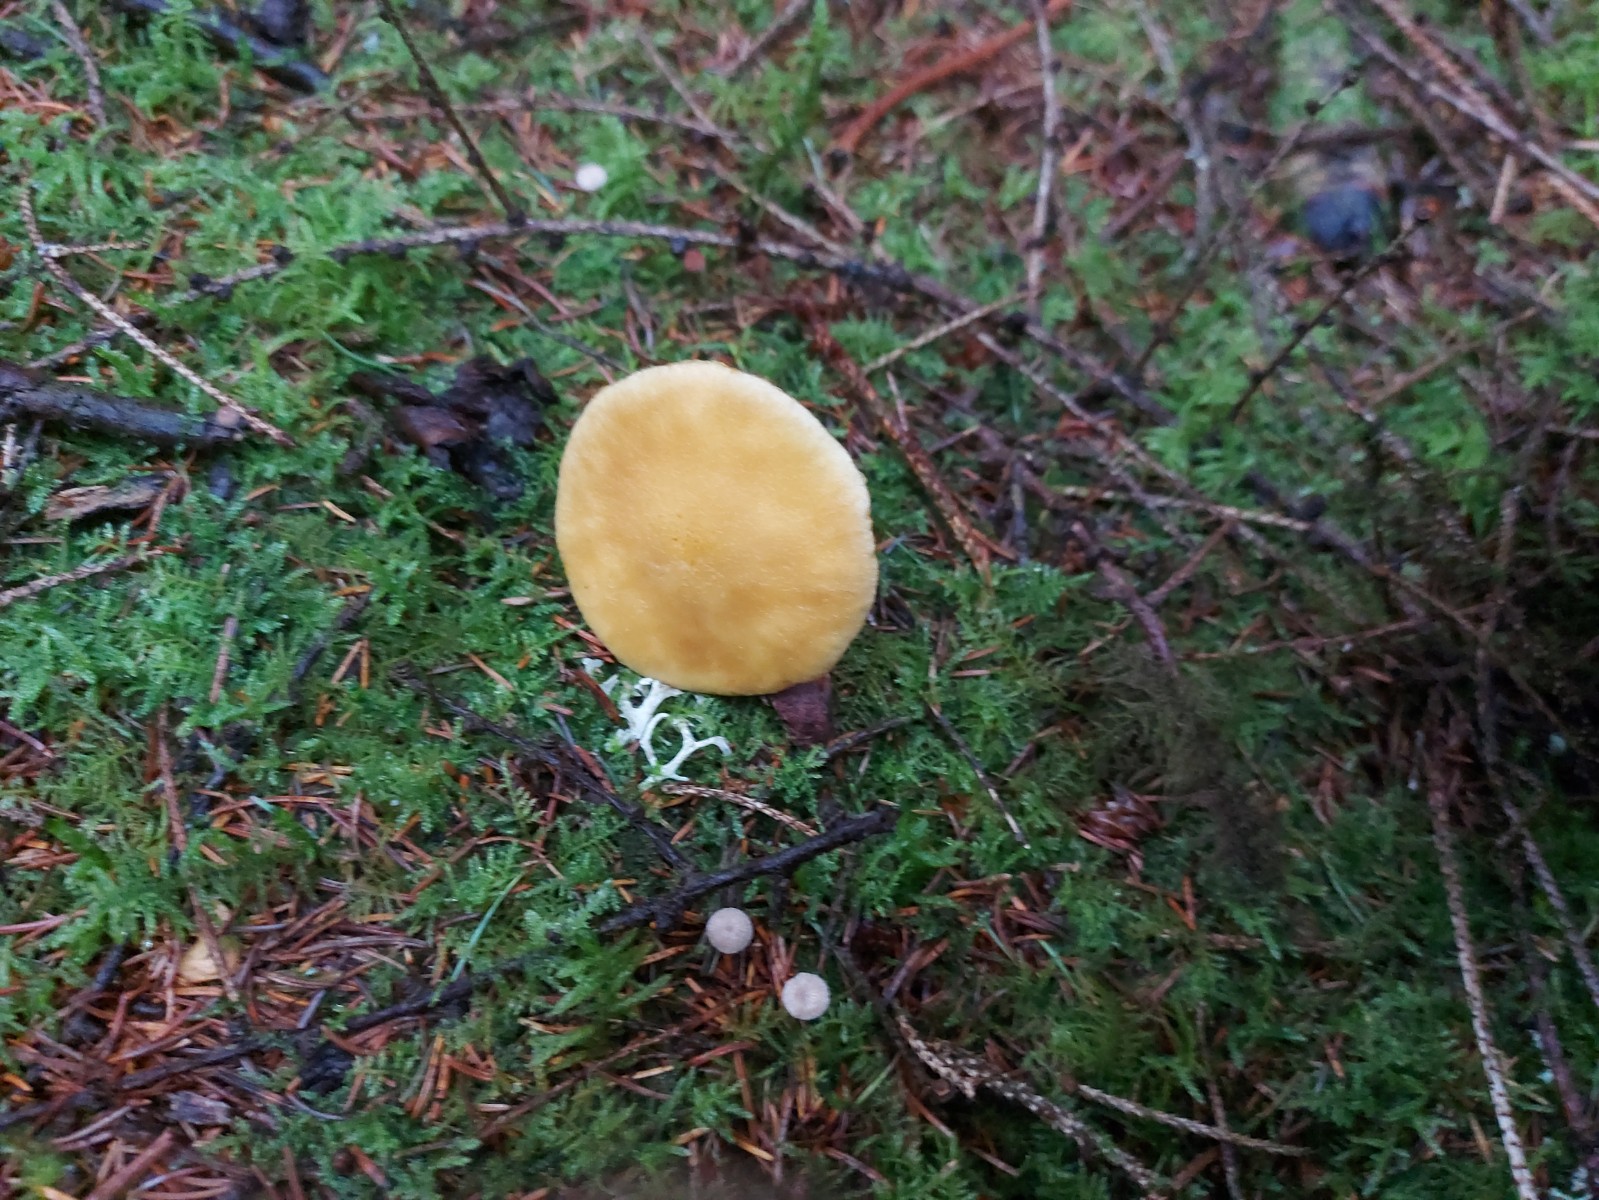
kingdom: Fungi
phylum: Basidiomycota
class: Agaricomycetes
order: Boletales
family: Suillaceae
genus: Suillus
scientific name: Suillus cavipes
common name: hulstokket slimrørhat, gul form
